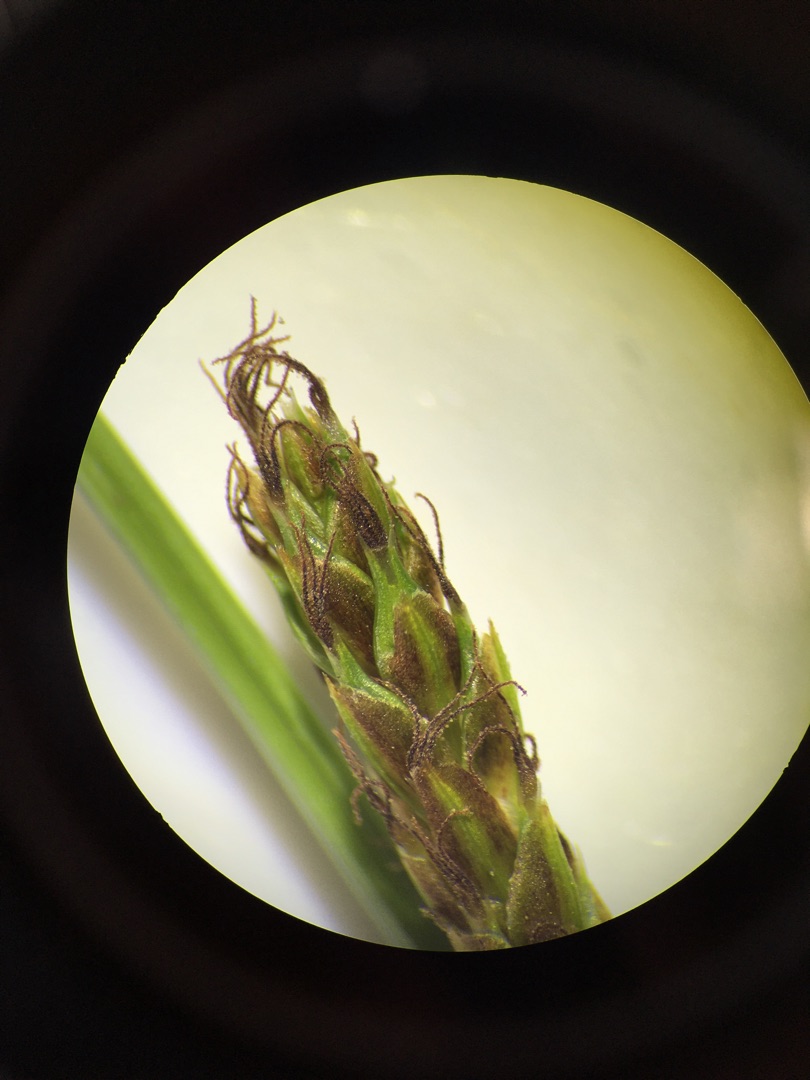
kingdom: Plantae
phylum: Tracheophyta
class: Liliopsida
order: Poales
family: Cyperaceae
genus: Carex
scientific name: Carex distans
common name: Fjernakset star
